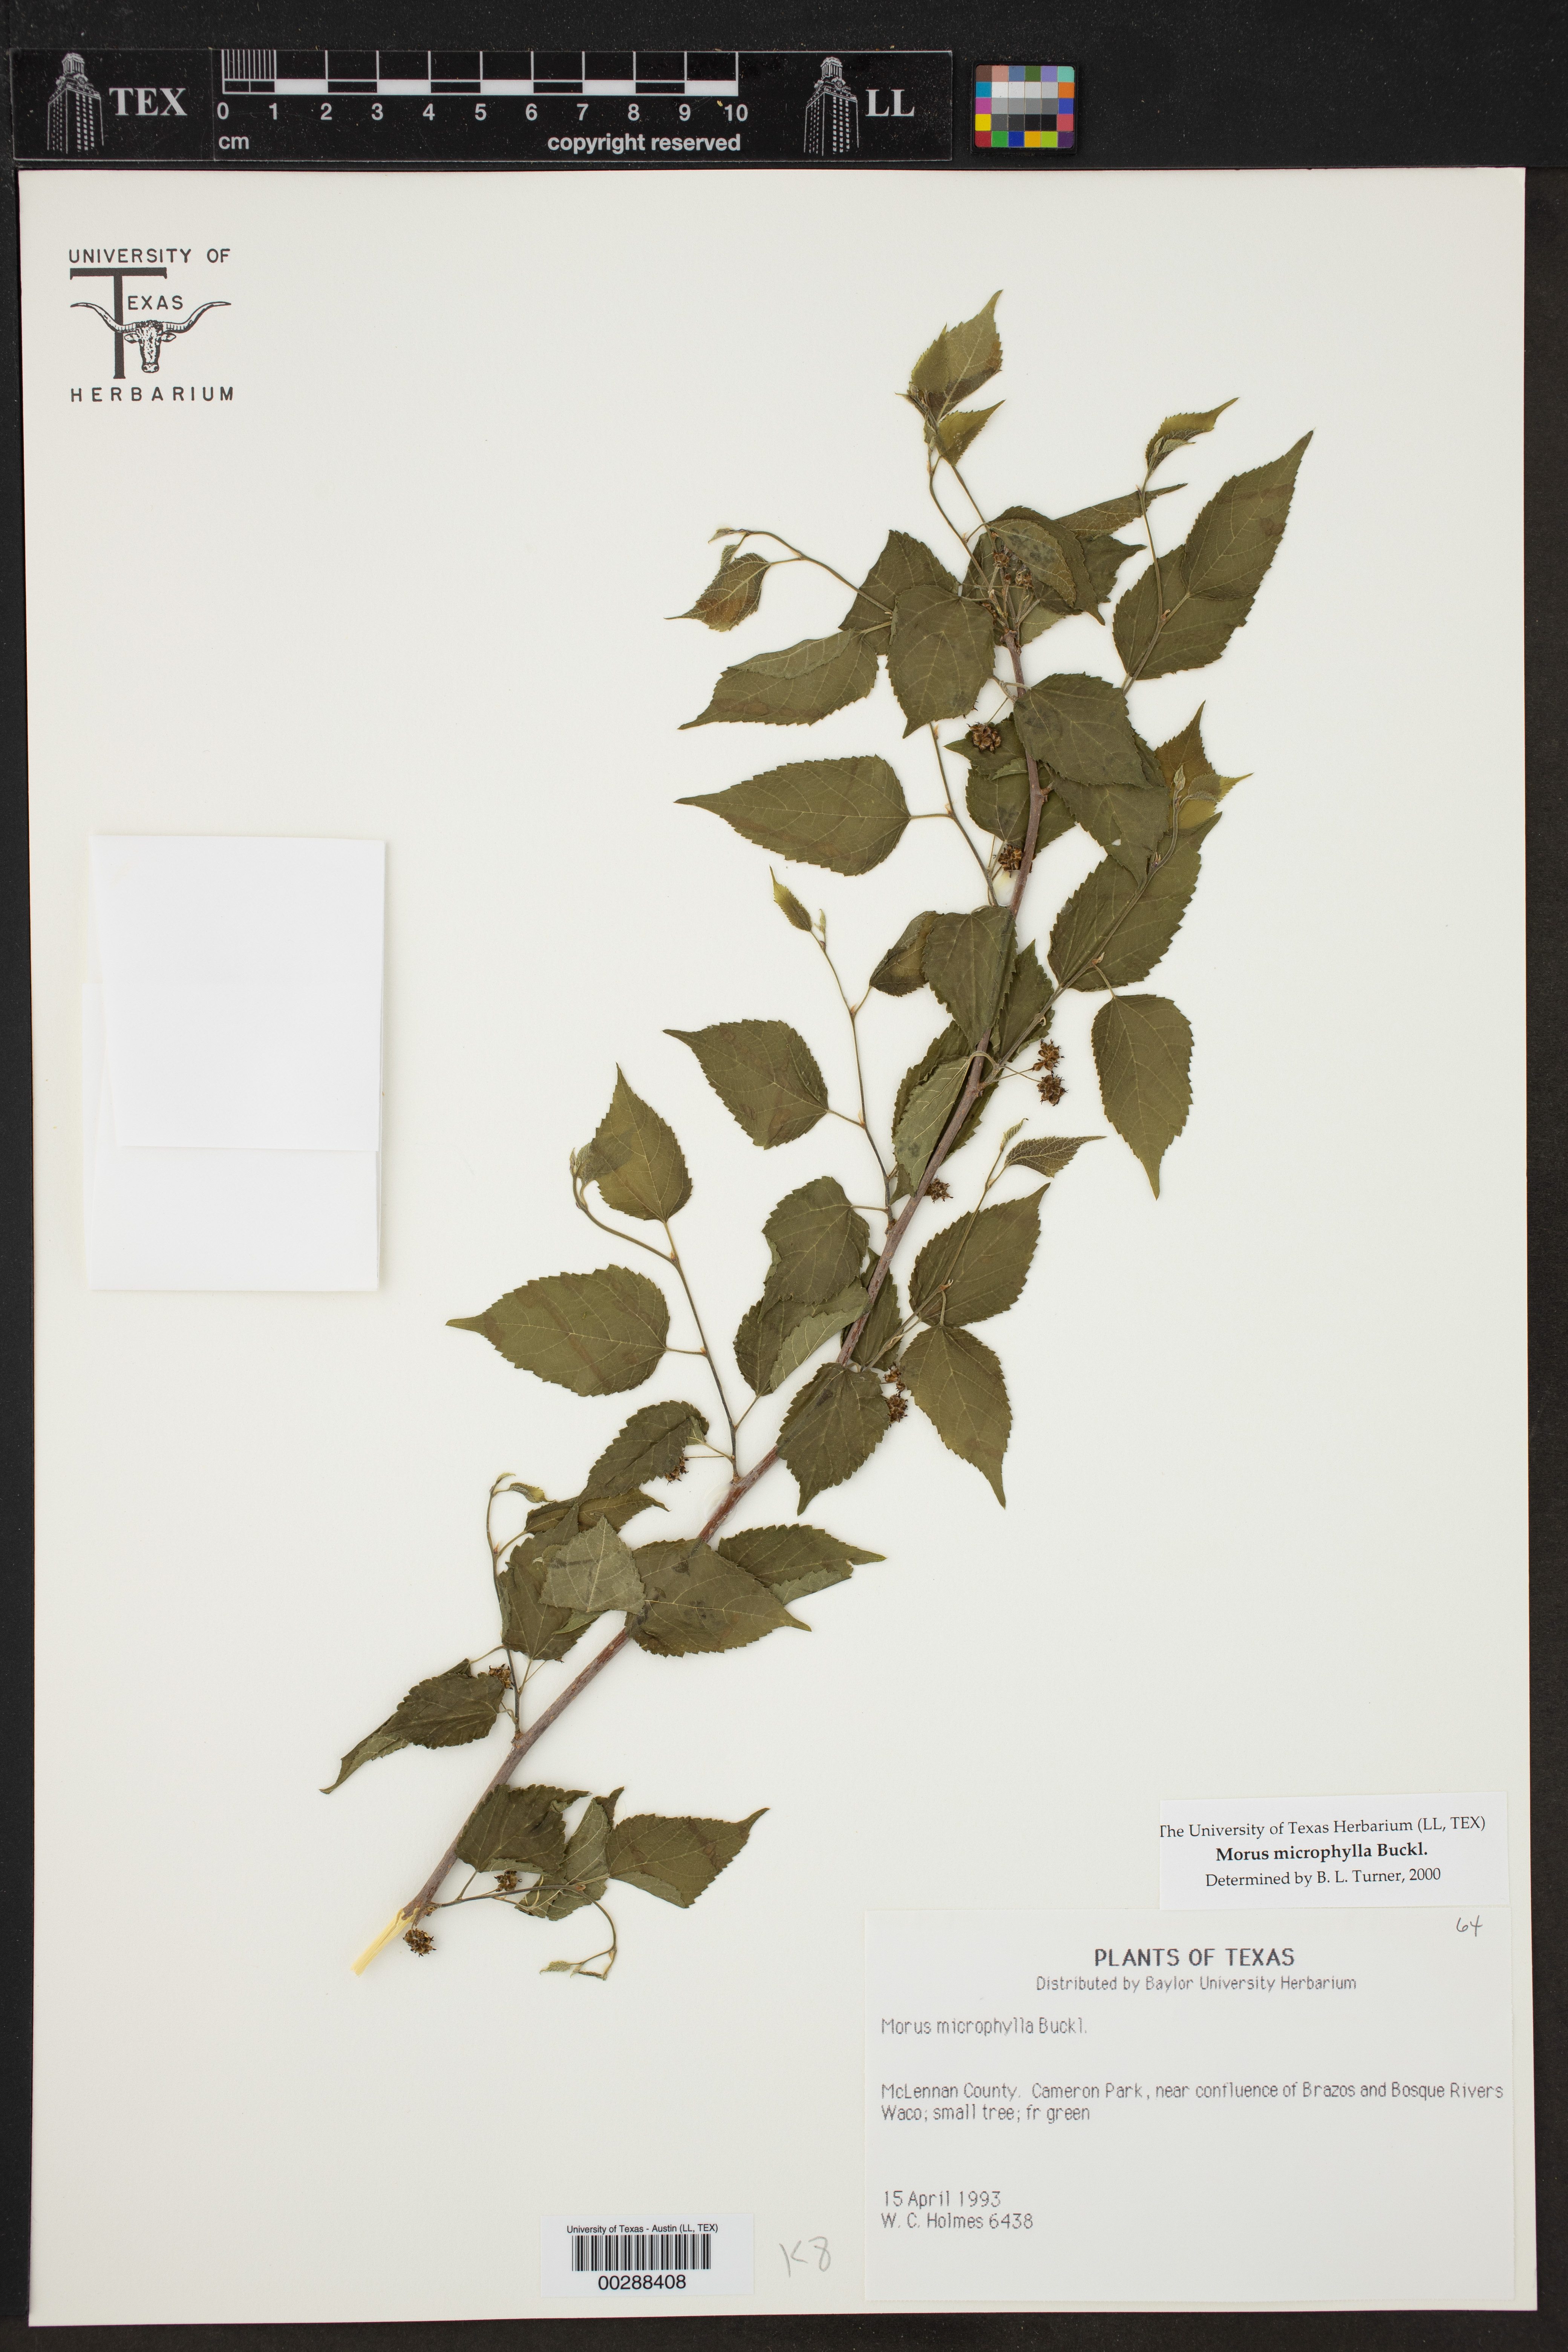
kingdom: Plantae
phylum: Tracheophyta
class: Magnoliopsida
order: Rosales
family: Moraceae
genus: Morus
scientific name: Morus microphylla
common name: Mexican mulberry
